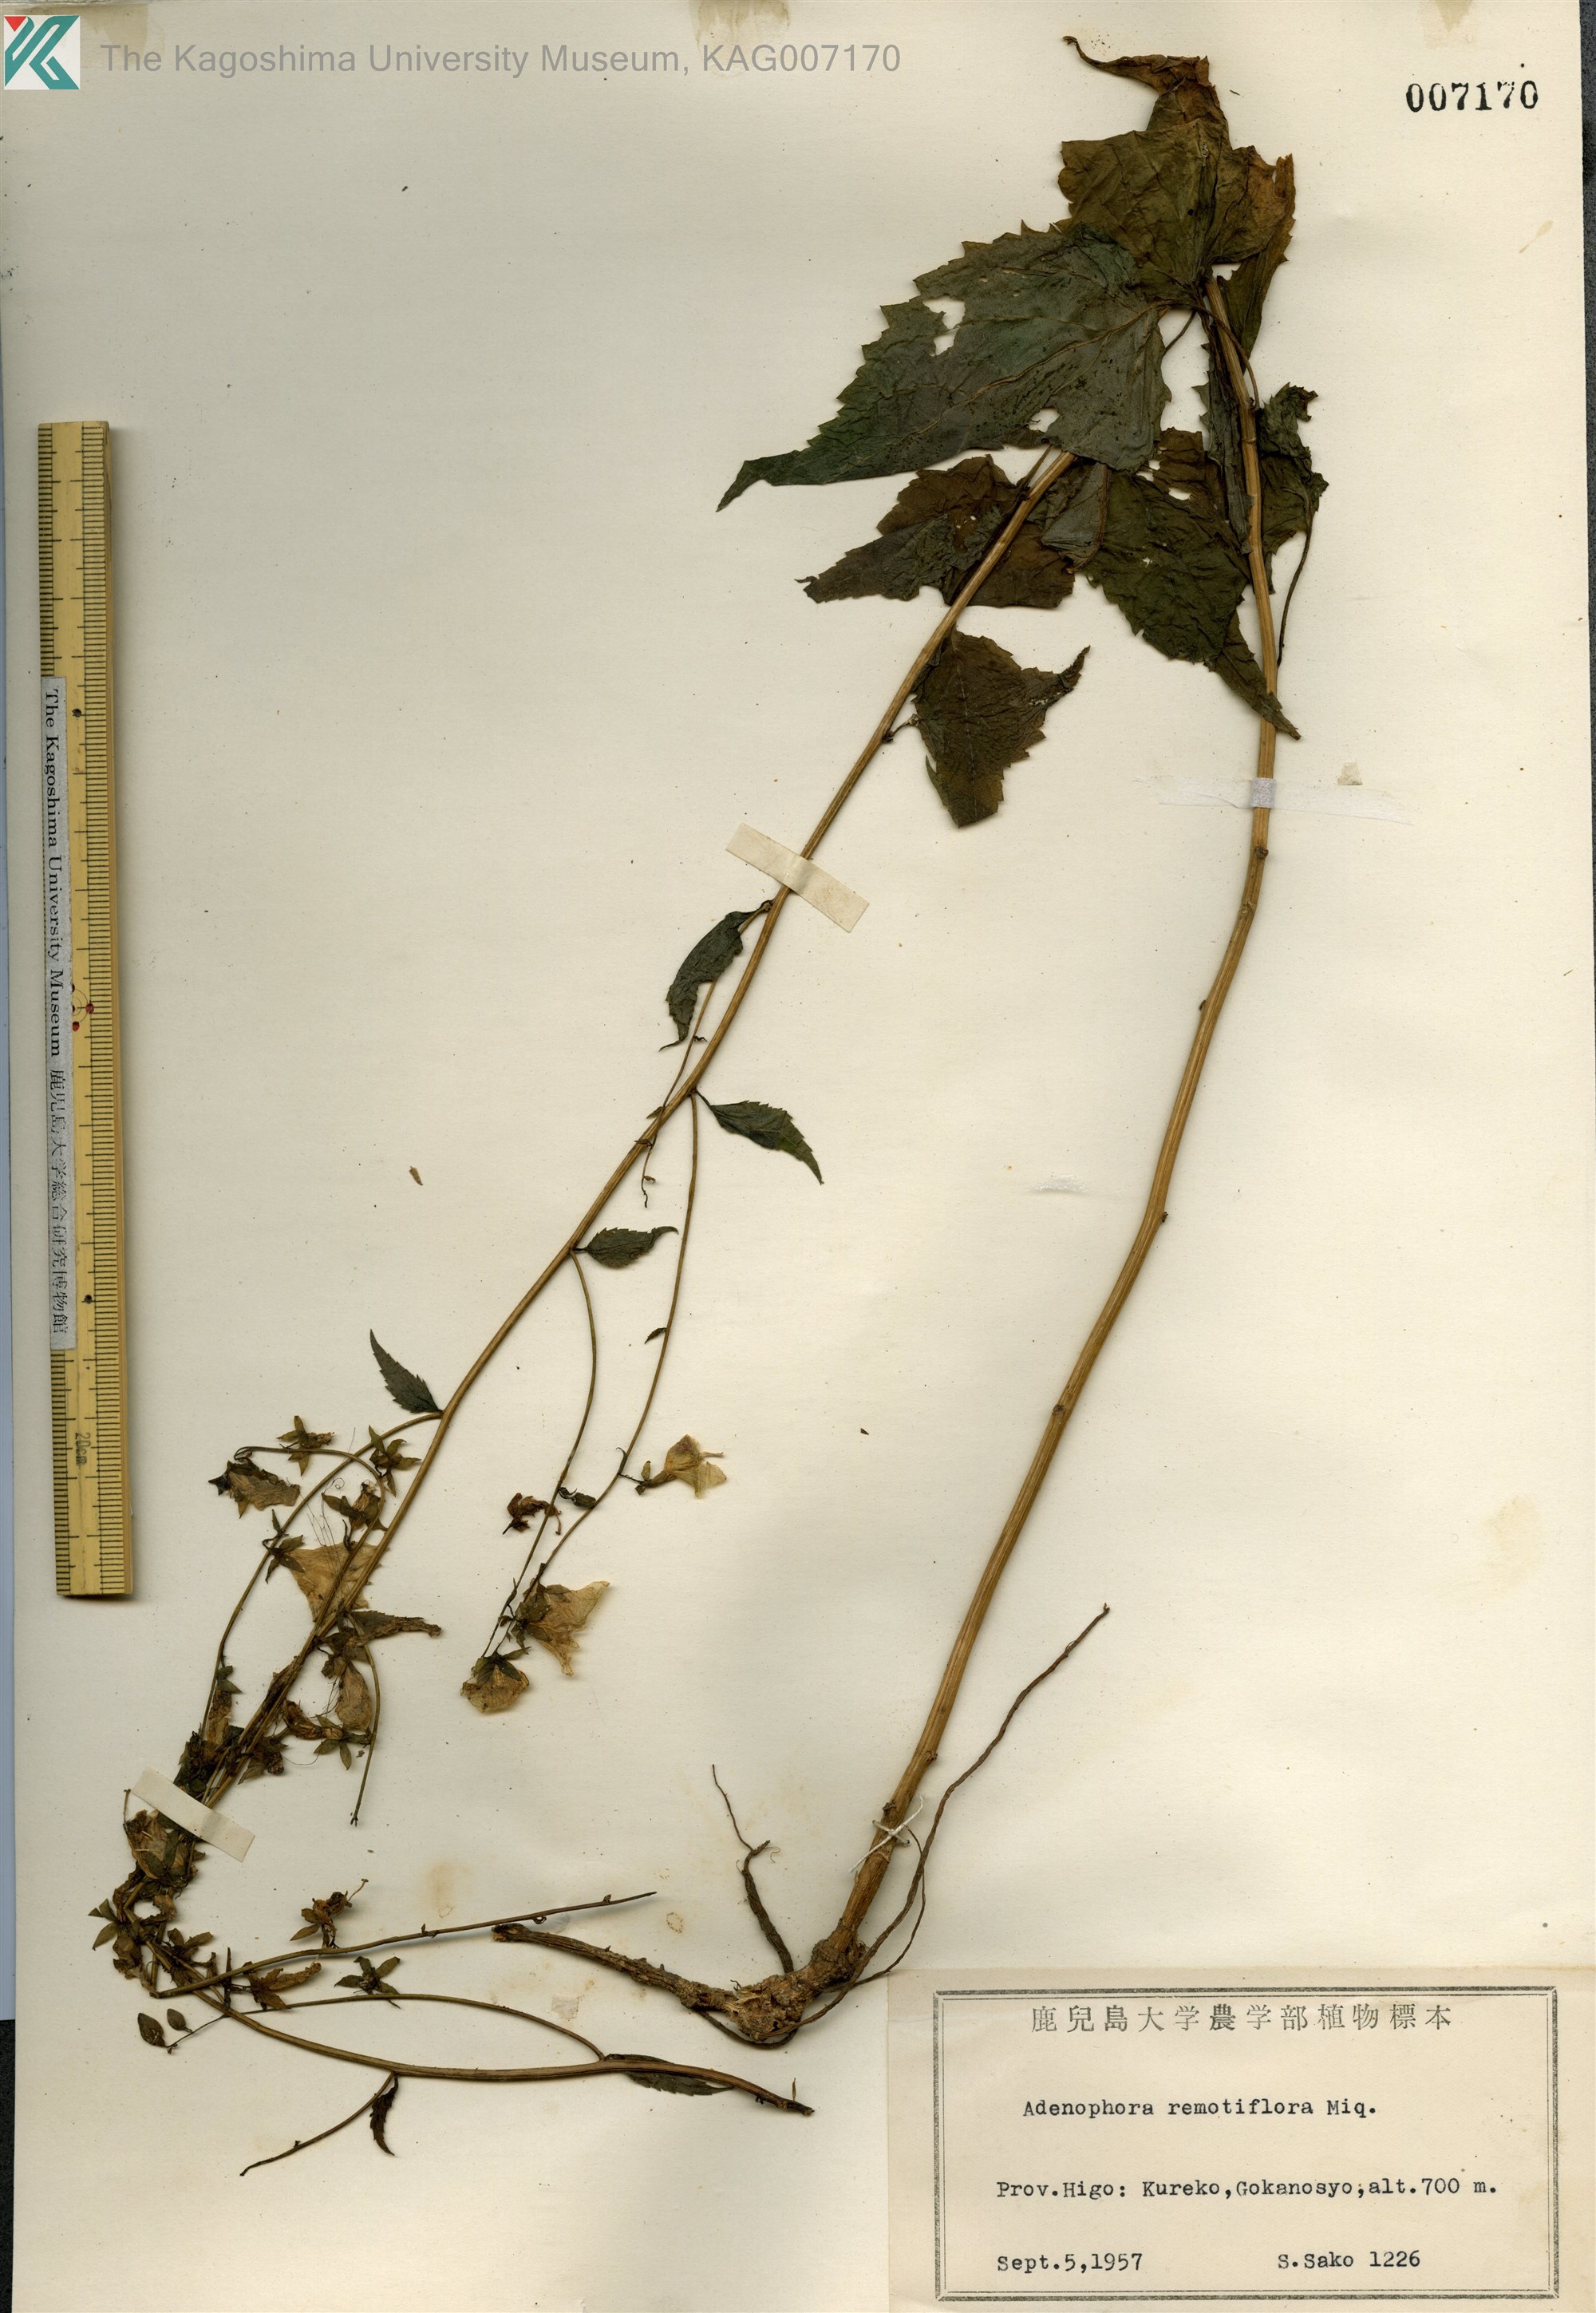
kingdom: Plantae
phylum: Tracheophyta
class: Magnoliopsida
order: Asterales
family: Campanulaceae
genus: Adenophora
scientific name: Adenophora remotiflora
